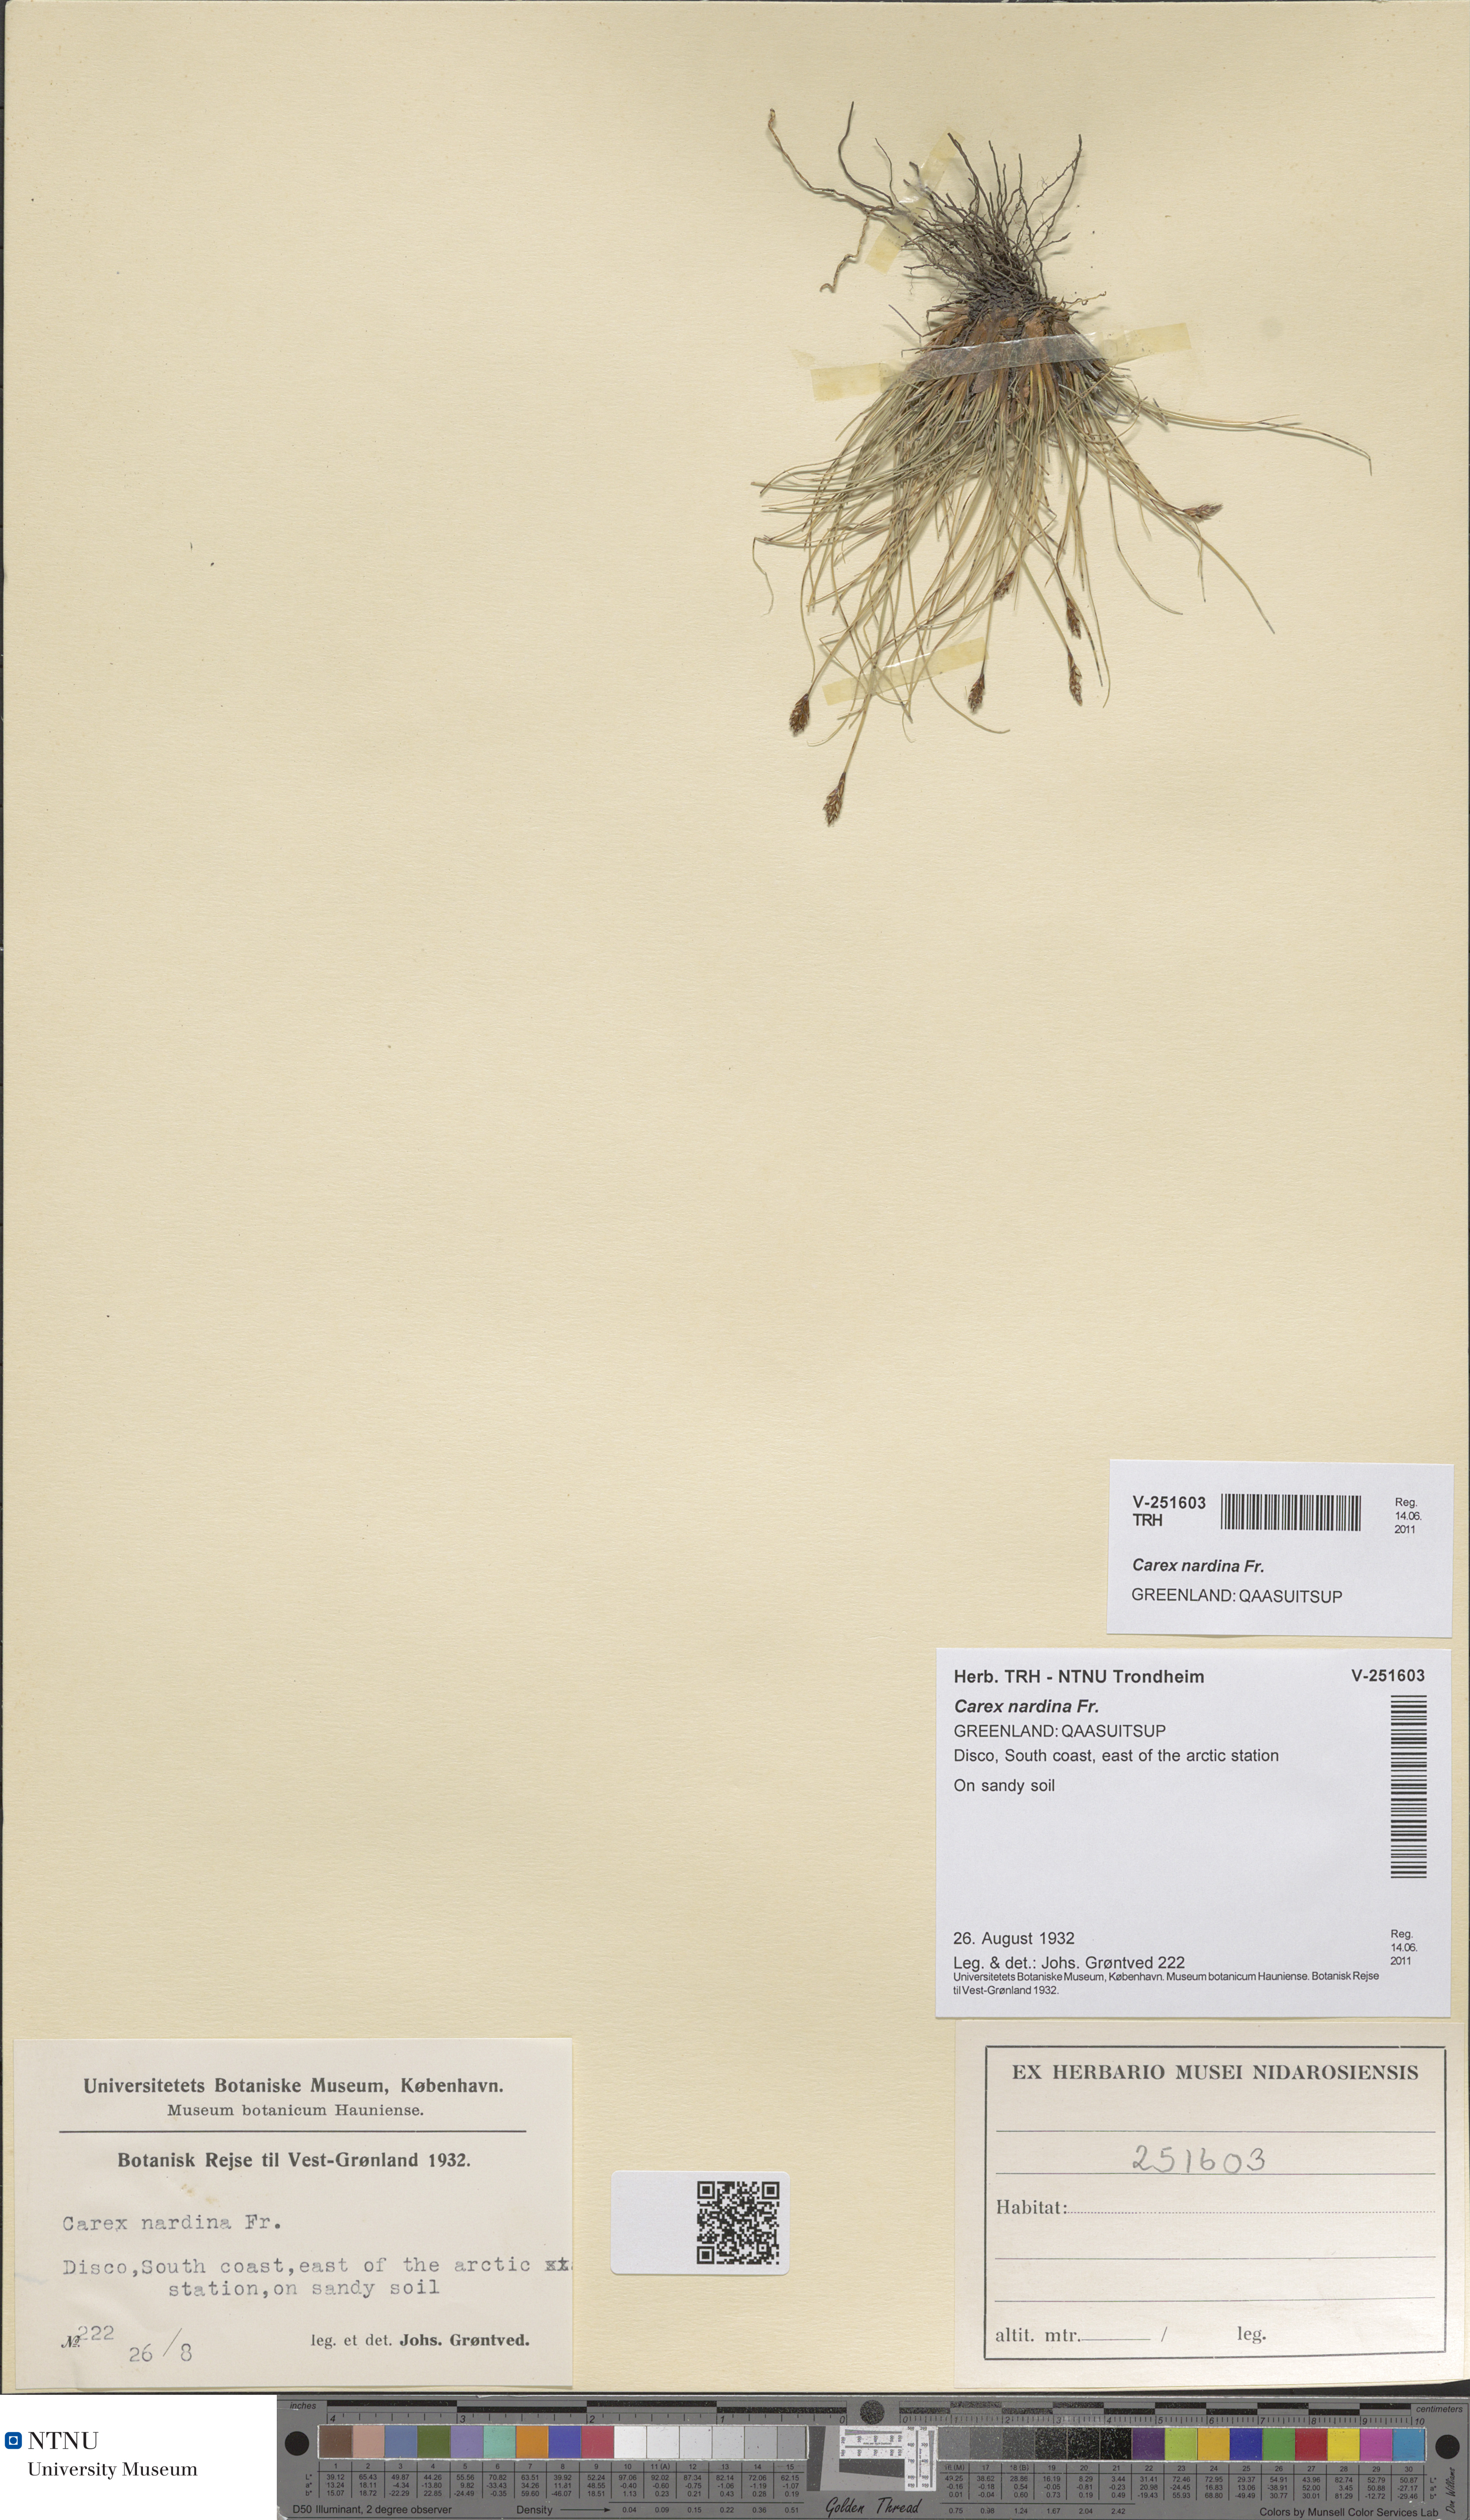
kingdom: Plantae
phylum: Tracheophyta
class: Liliopsida
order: Poales
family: Cyperaceae
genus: Carex
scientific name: Carex nardina
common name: Nard sedge
